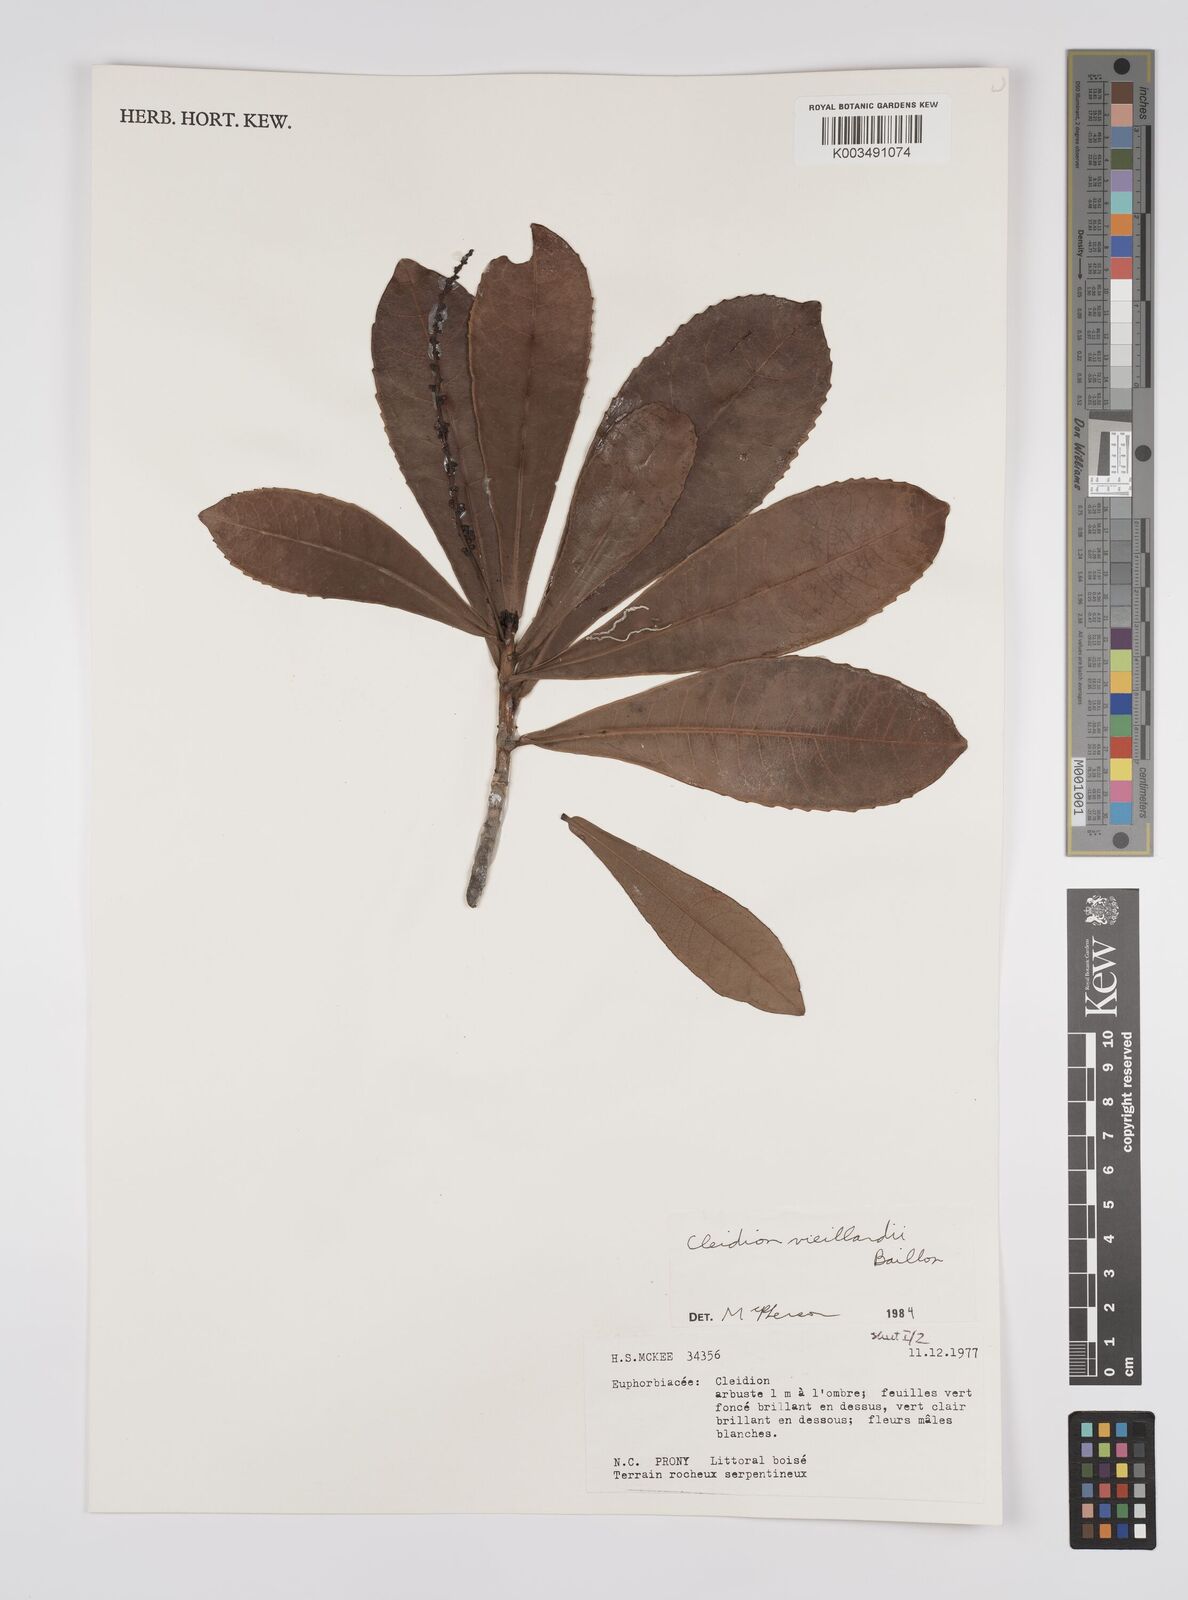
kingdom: Plantae
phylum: Tracheophyta
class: Magnoliopsida
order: Malpighiales
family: Euphorbiaceae
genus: Cleidion
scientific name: Cleidion vieillardii
